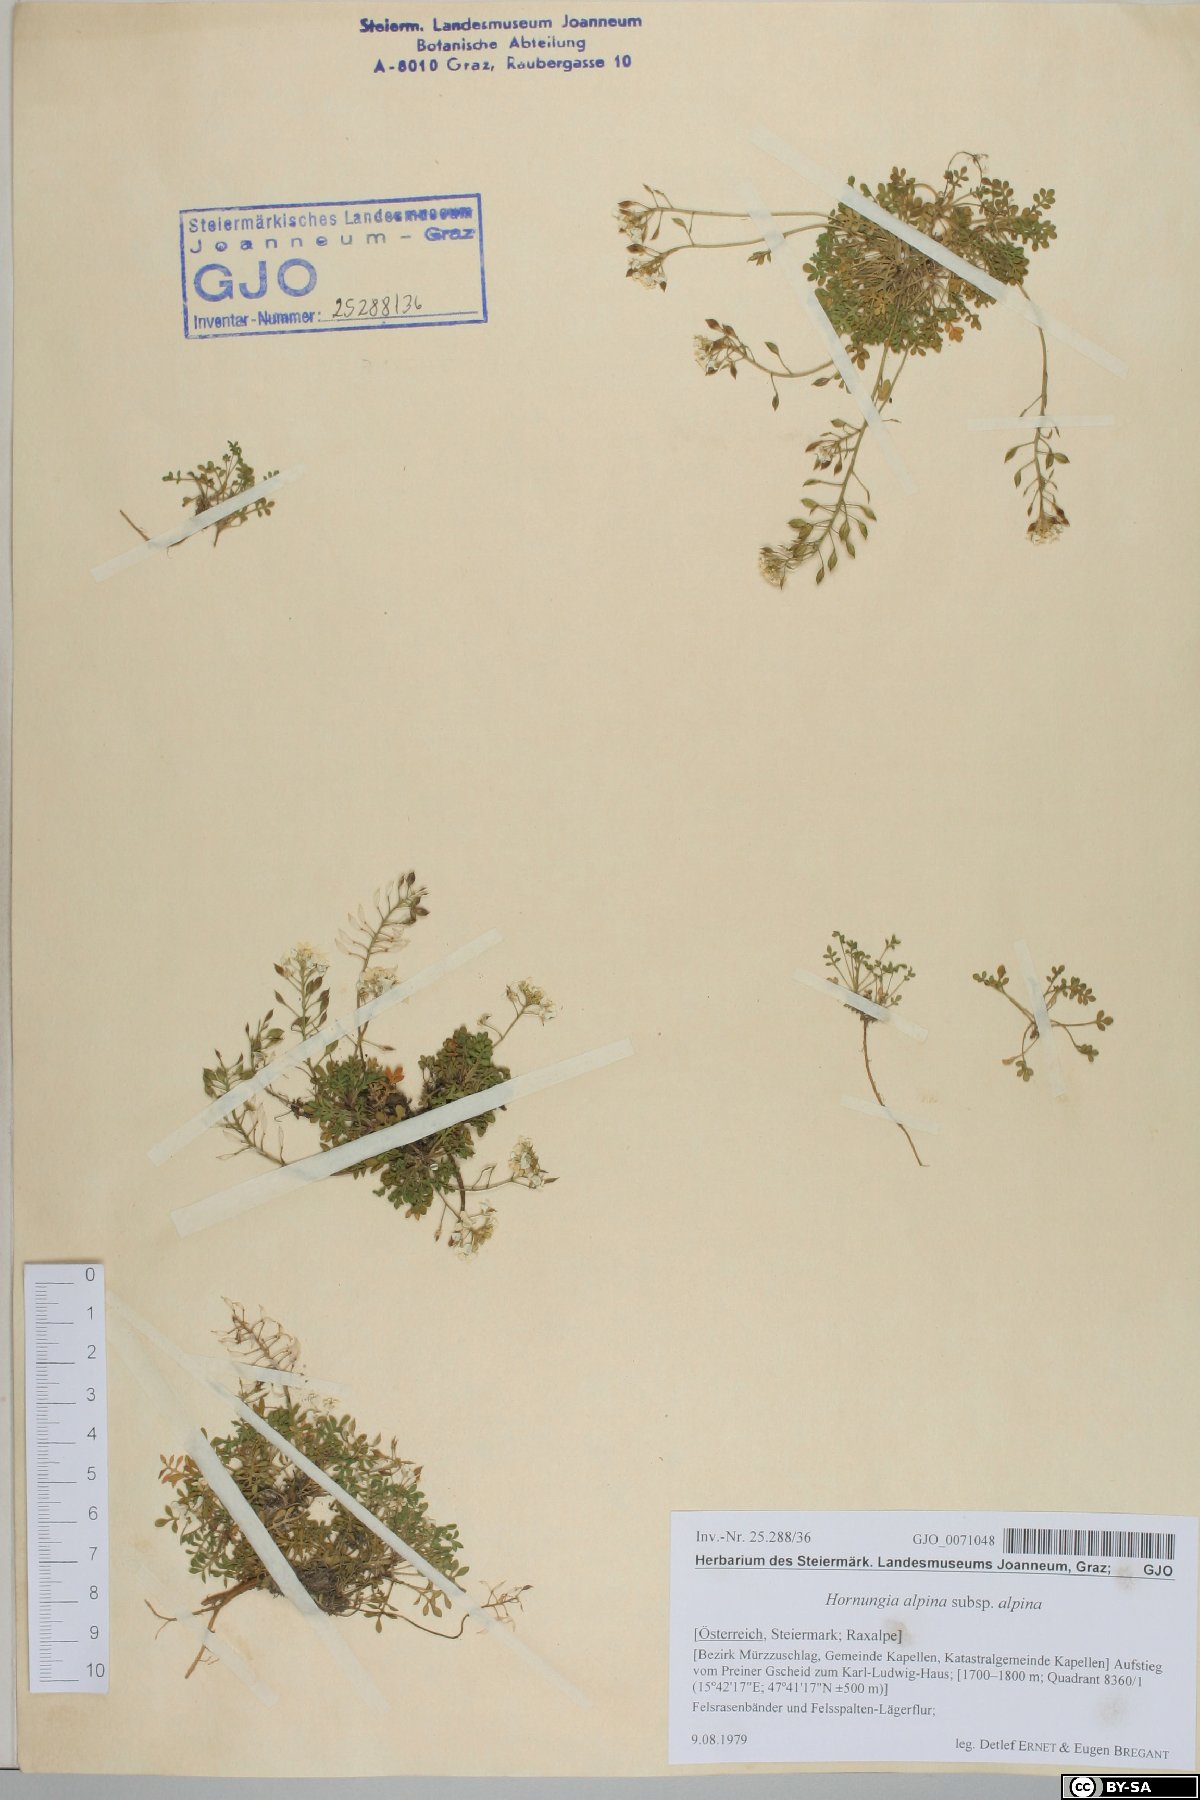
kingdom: Plantae
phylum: Tracheophyta
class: Magnoliopsida
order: Brassicales
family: Brassicaceae
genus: Hornungia
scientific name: Hornungia alpina
